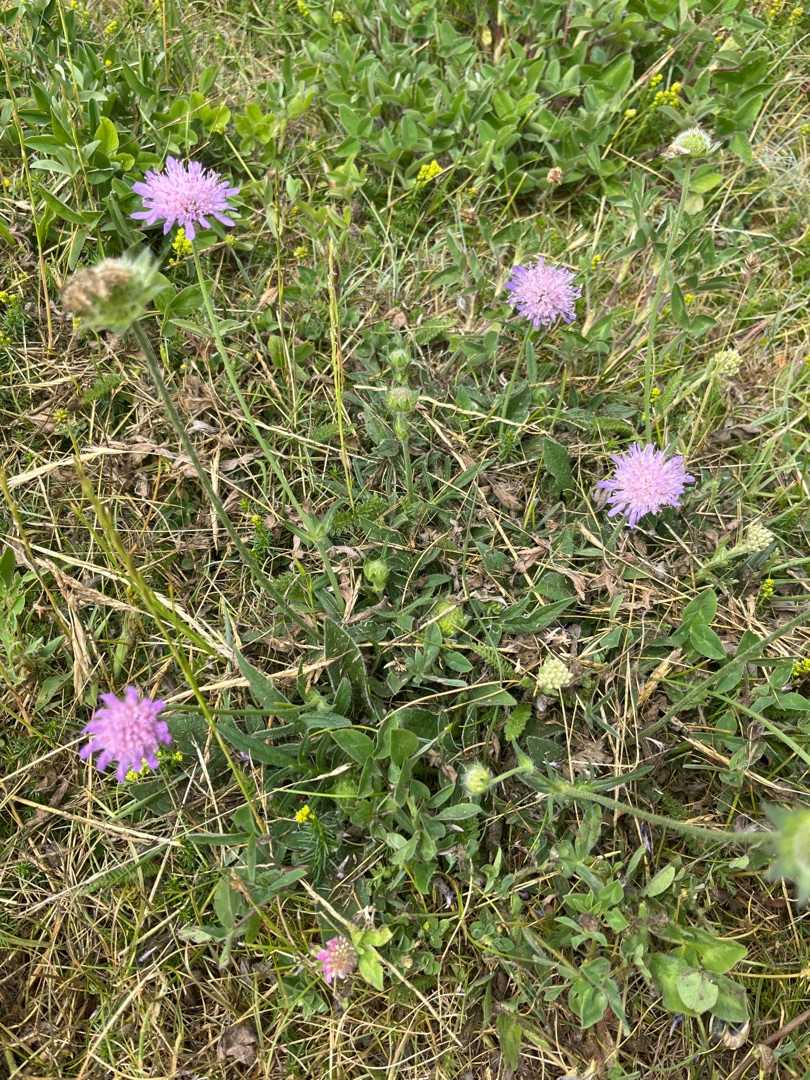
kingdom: Plantae
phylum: Tracheophyta
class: Magnoliopsida
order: Dipsacales
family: Caprifoliaceae
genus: Knautia
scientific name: Knautia arvensis
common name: Blåhat
